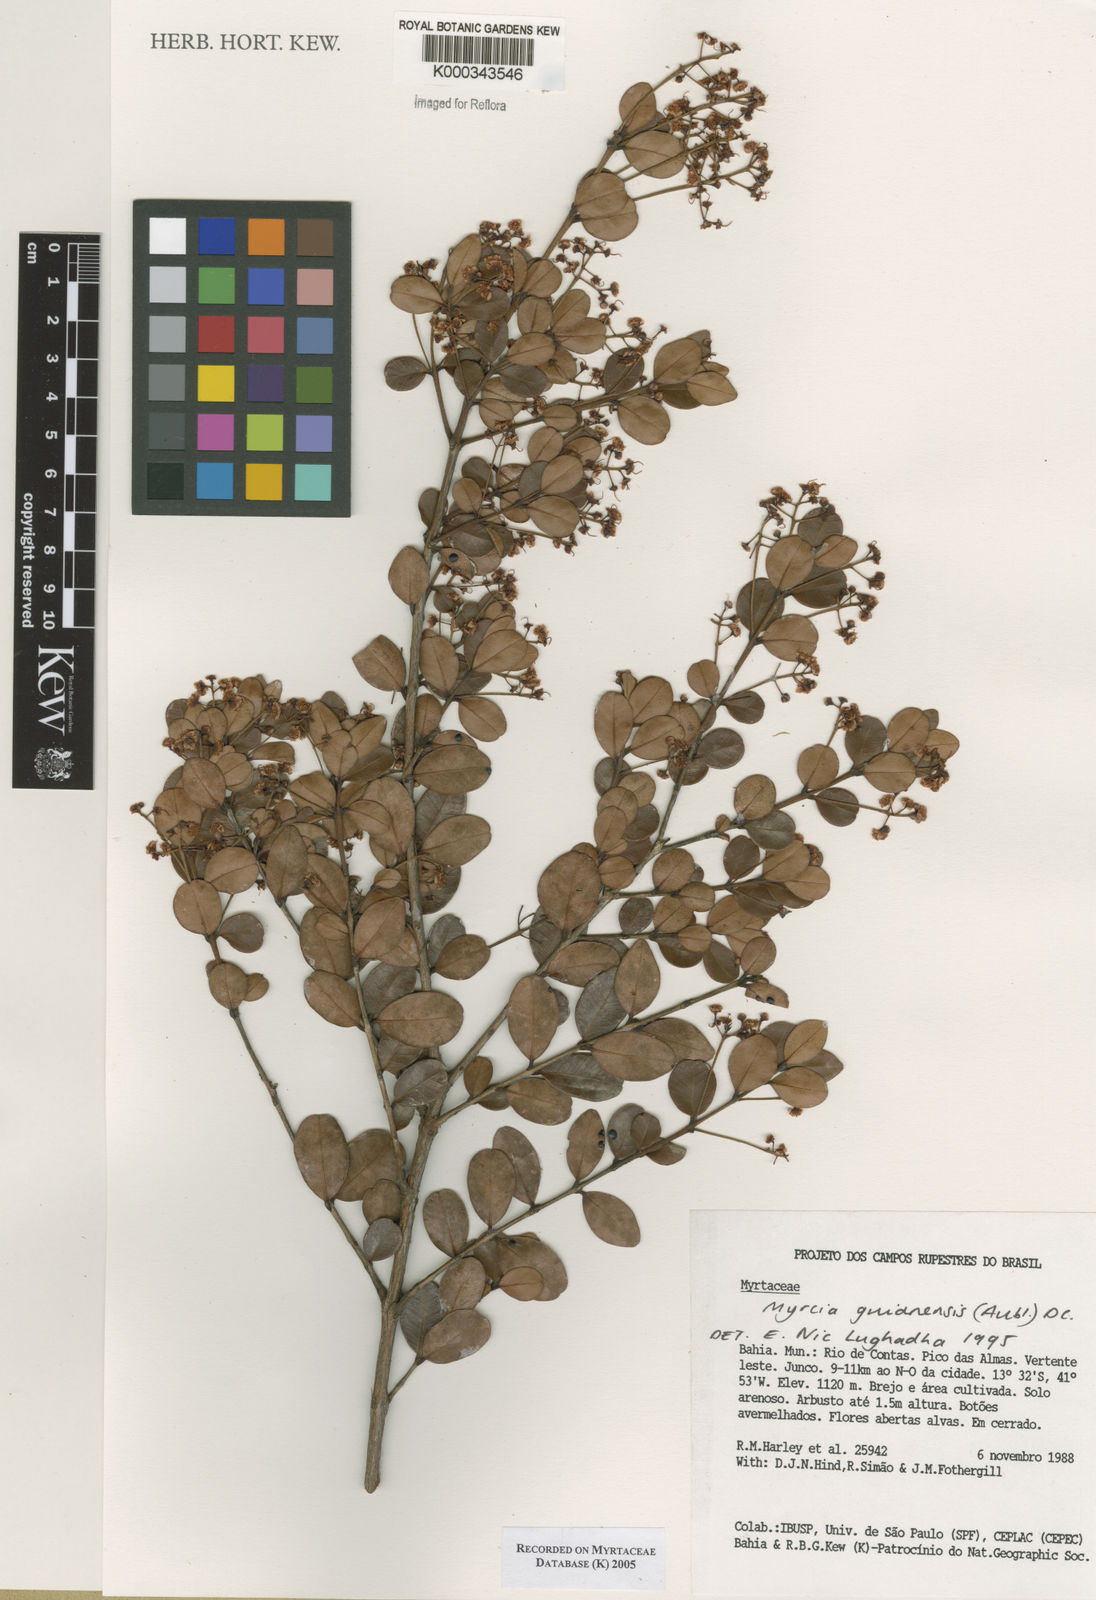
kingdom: Plantae
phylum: Tracheophyta
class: Magnoliopsida
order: Myrtales
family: Myrtaceae
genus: Myrcia
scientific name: Myrcia guianensis
